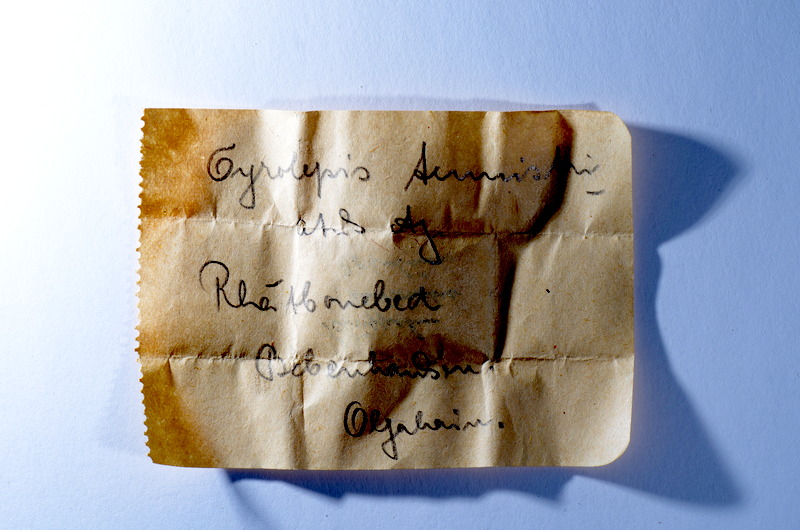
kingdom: Animalia
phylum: Chordata
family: Palaeoniscidae
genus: Gyrolepis
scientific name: Gyrolepis albertii
